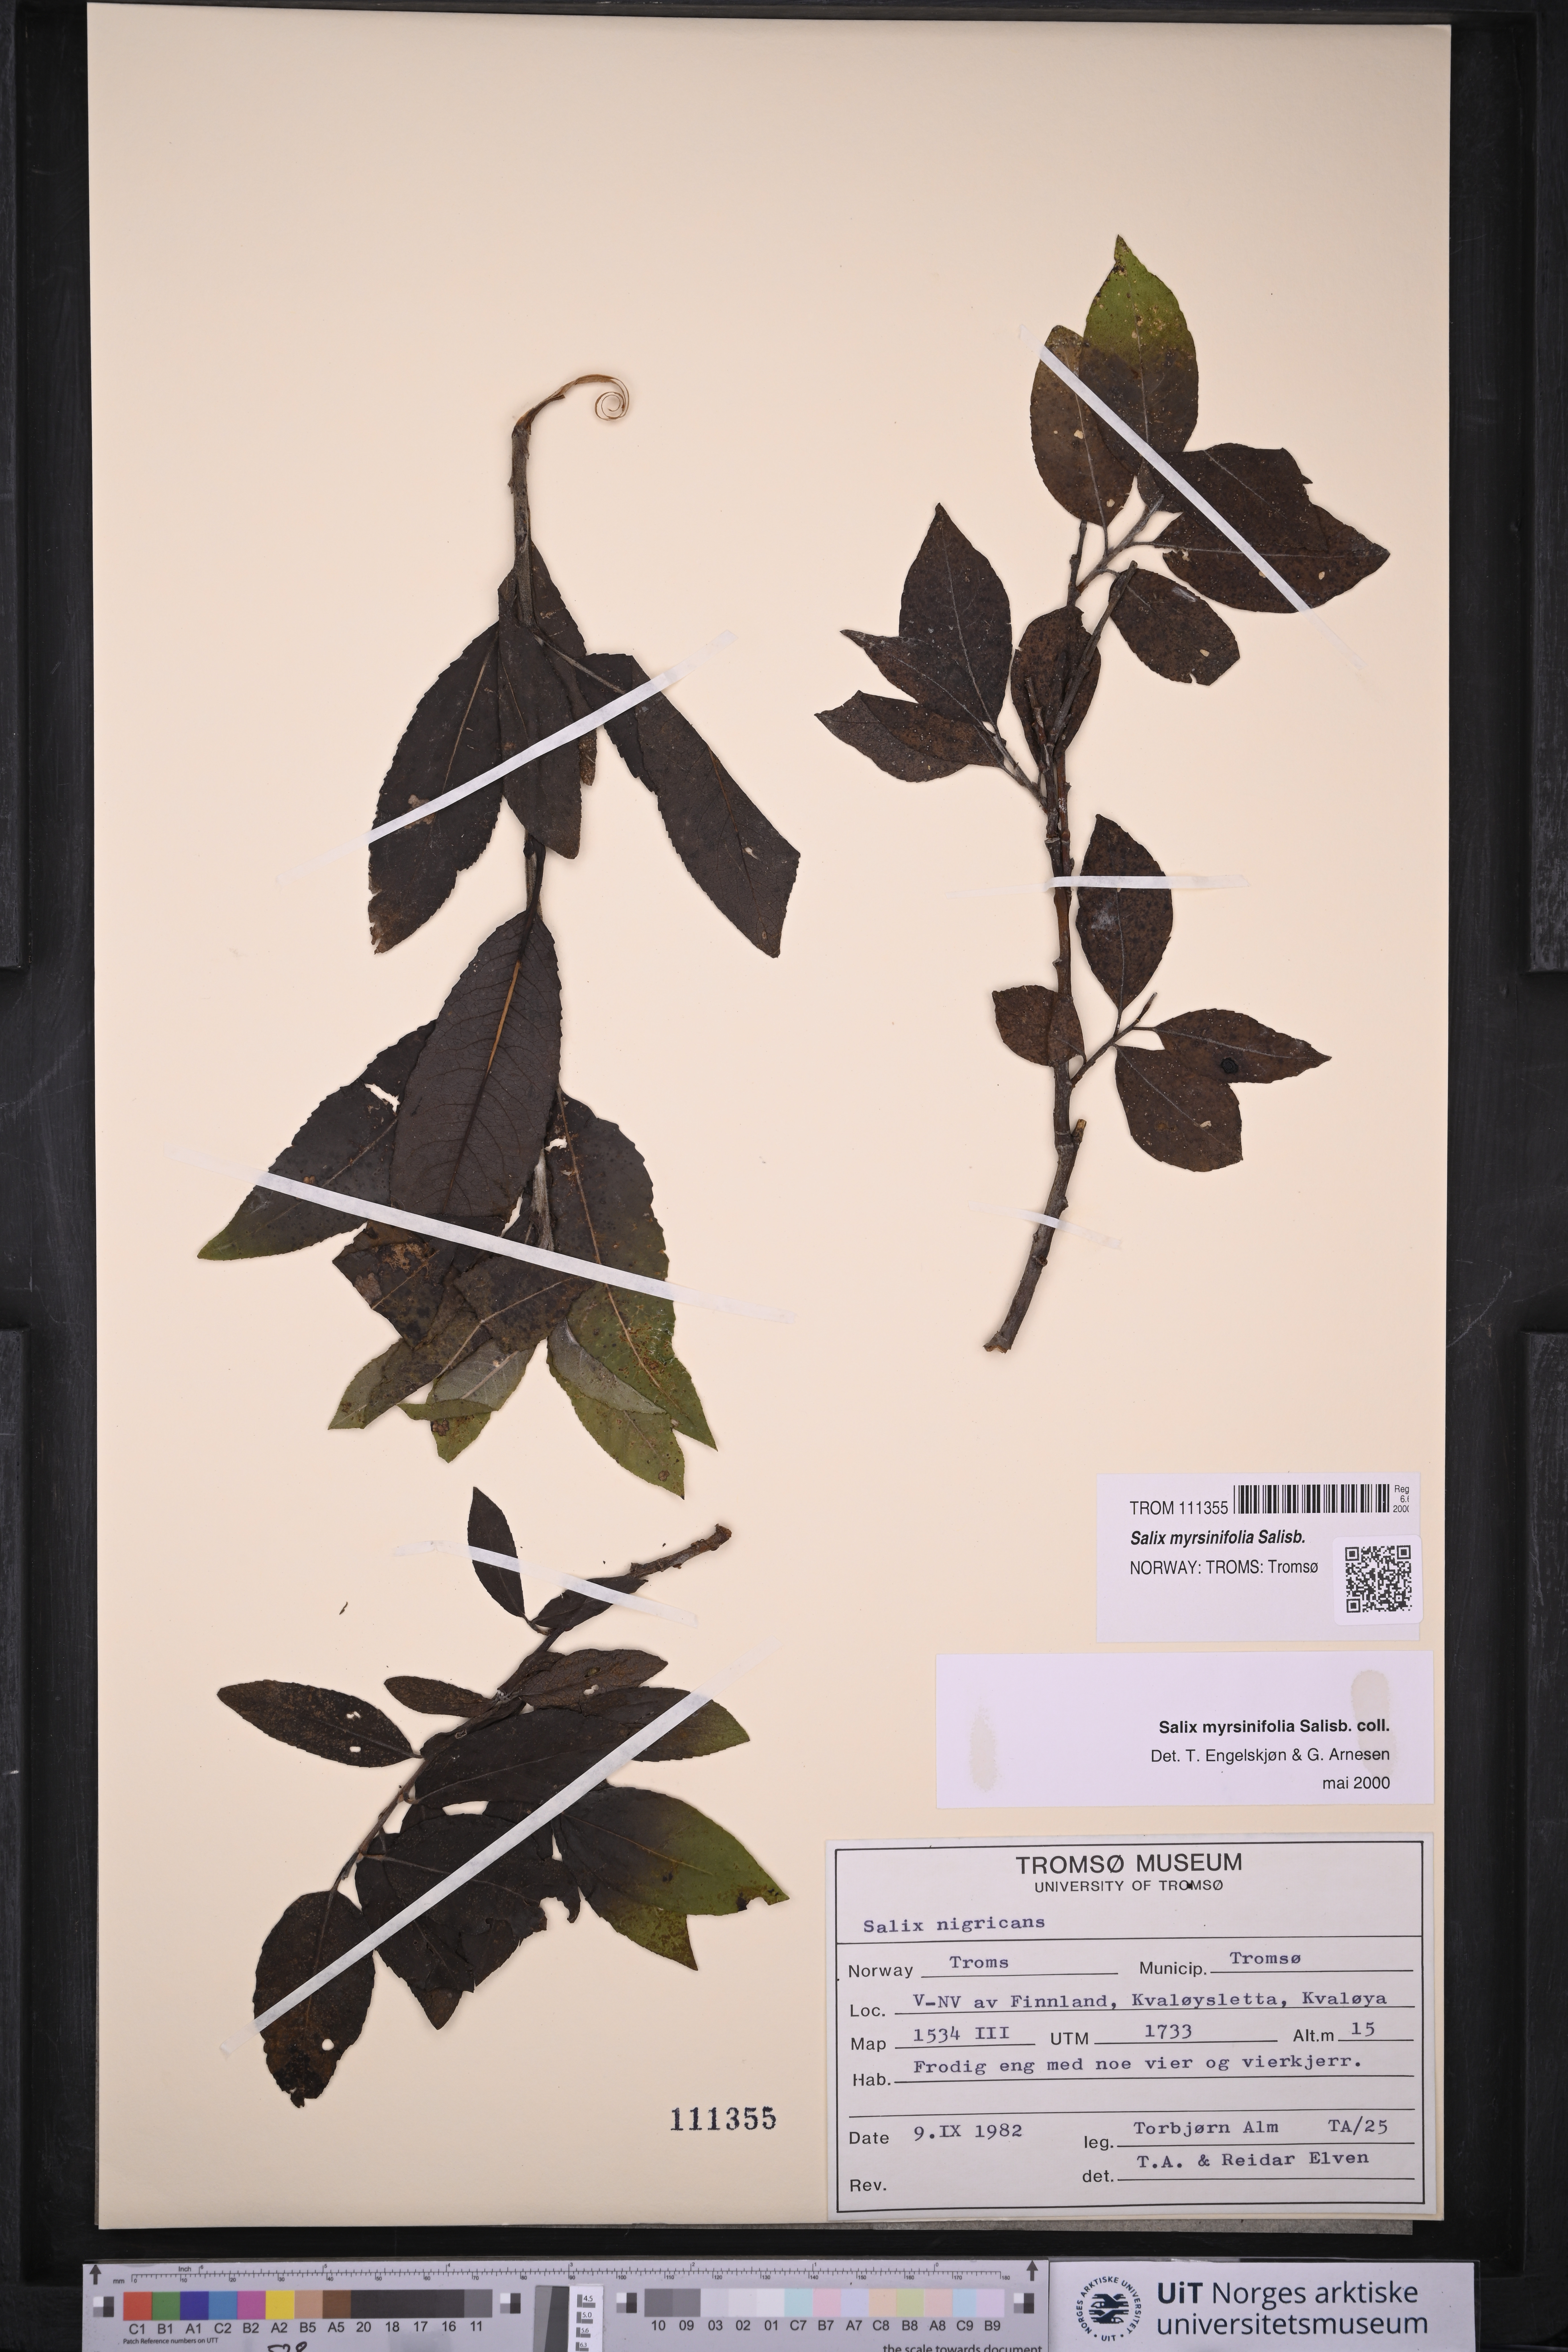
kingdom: Plantae
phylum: Tracheophyta
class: Magnoliopsida
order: Malpighiales
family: Salicaceae
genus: Salix
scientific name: Salix myrsinifolia
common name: Dark-leaved willow
